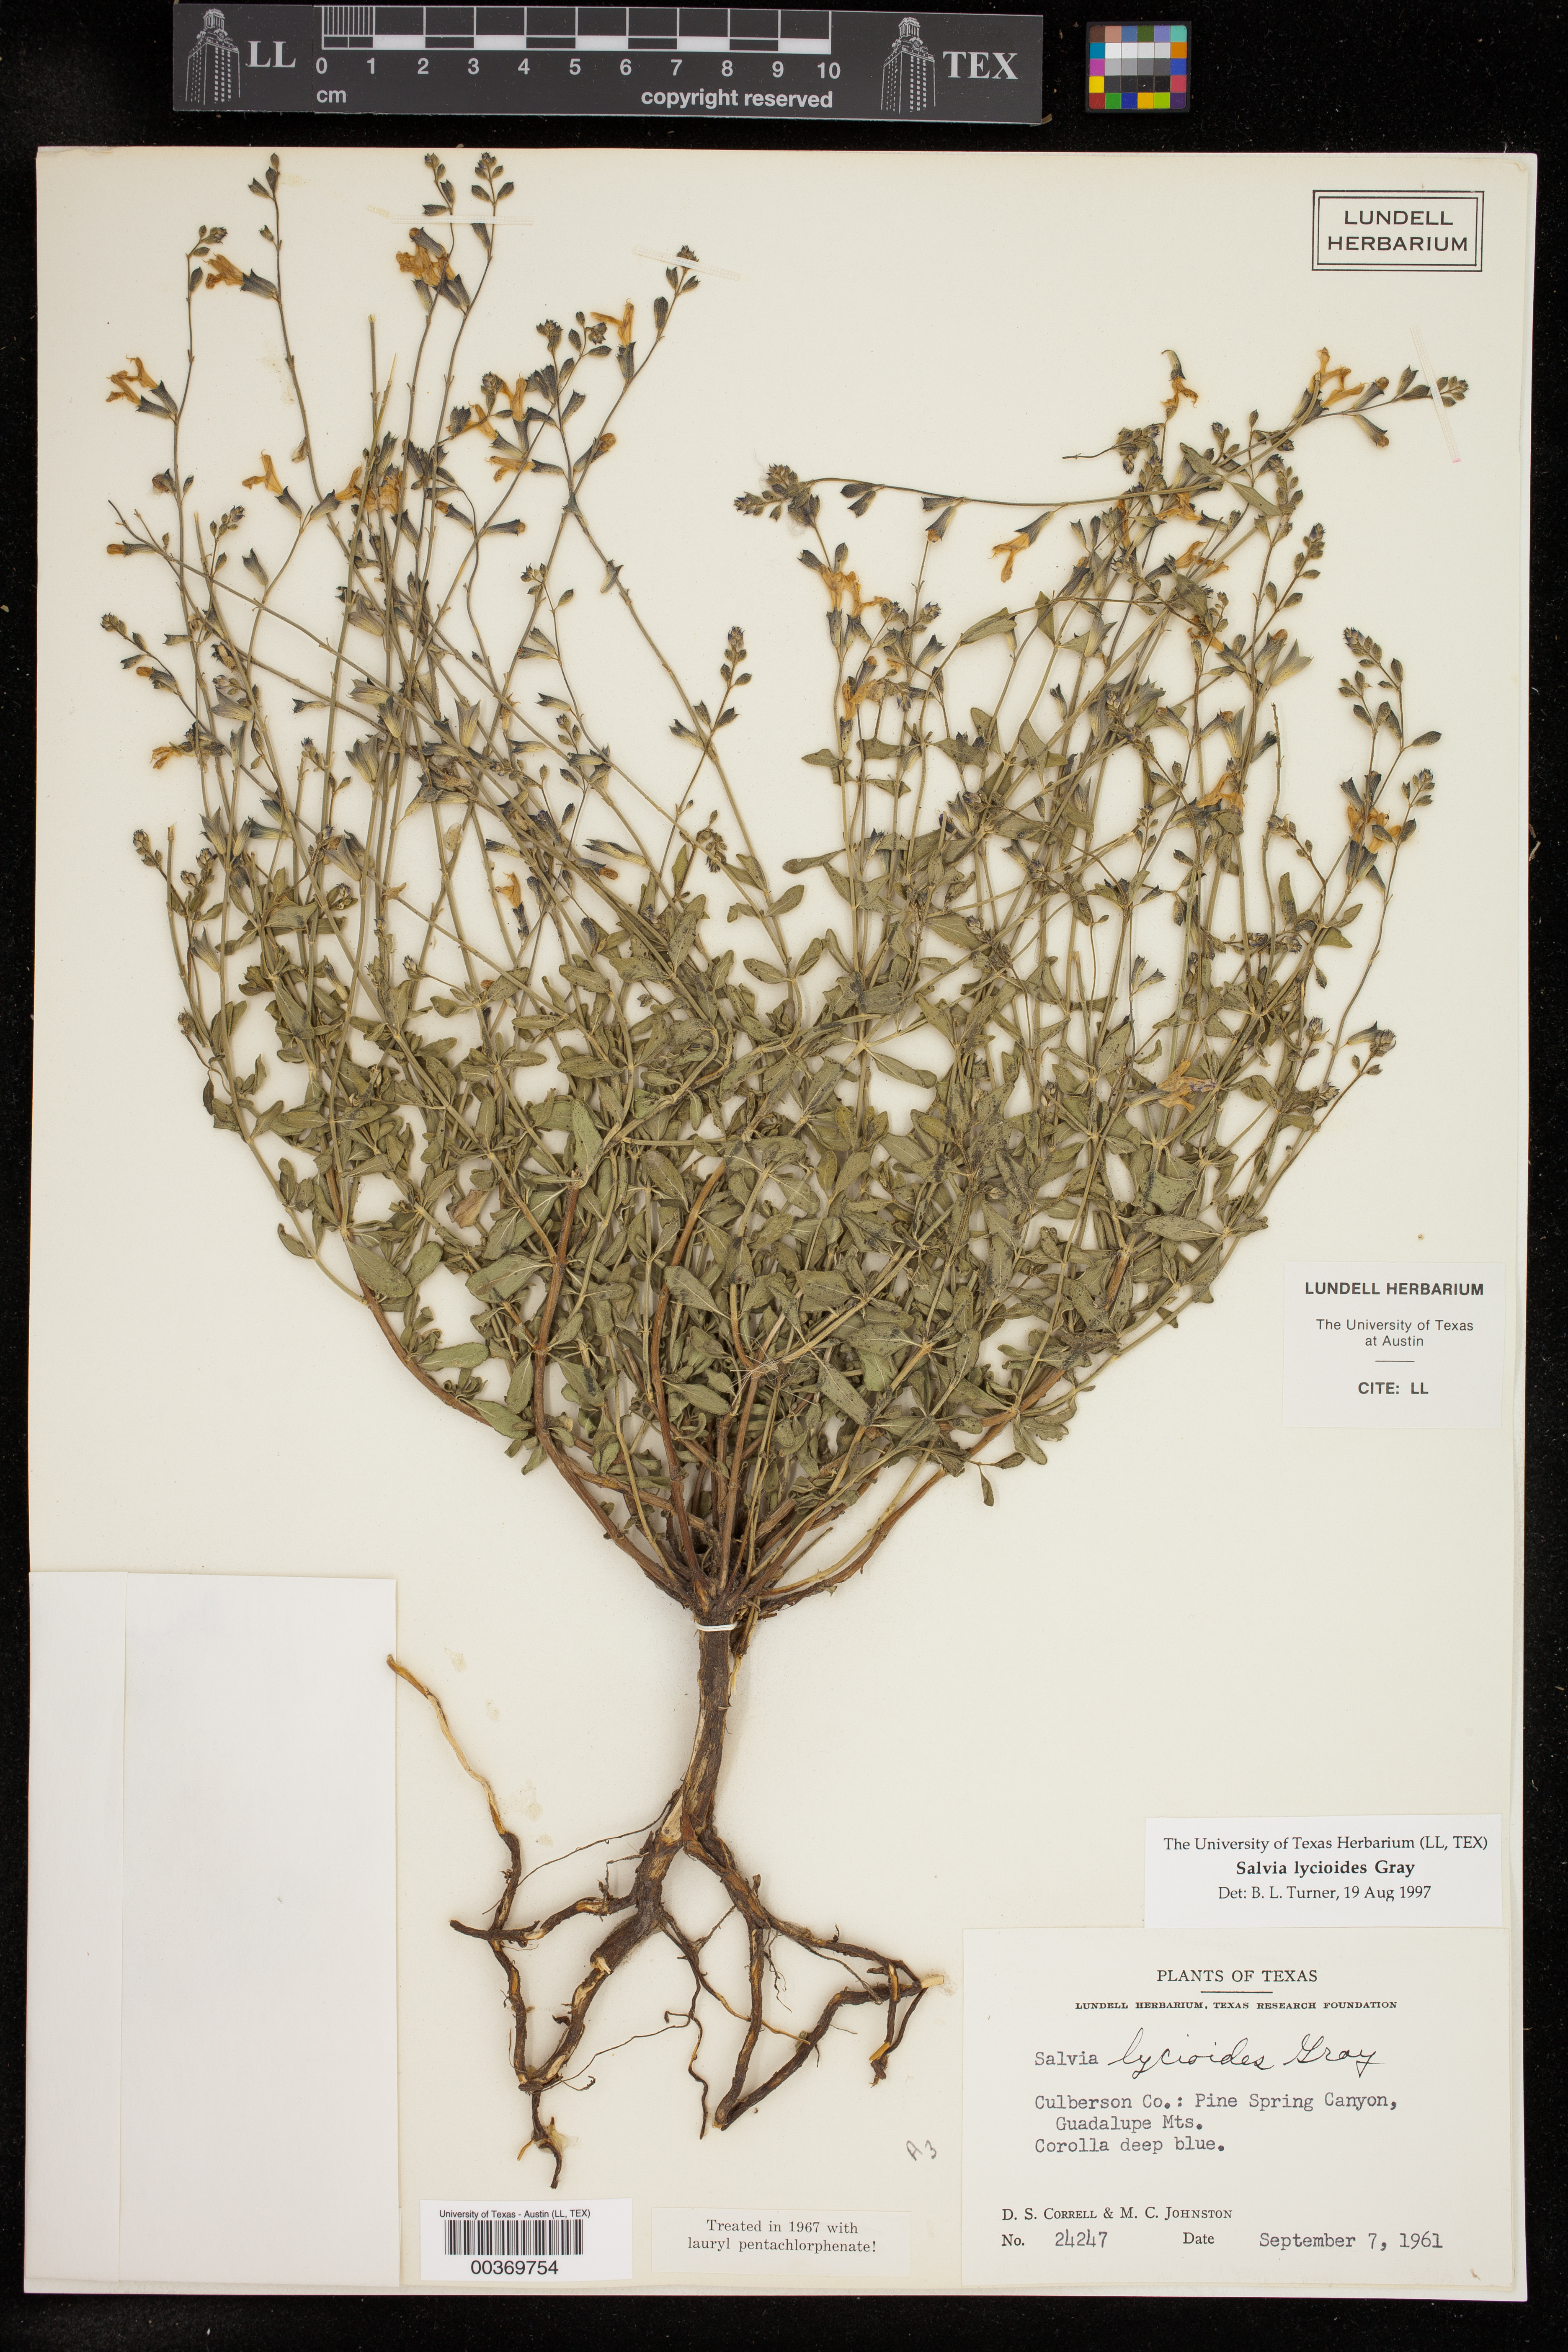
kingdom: Plantae
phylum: Tracheophyta
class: Magnoliopsida
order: Lamiales
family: Lamiaceae
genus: Salvia
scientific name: Salvia lycioides
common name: Canyon sage
